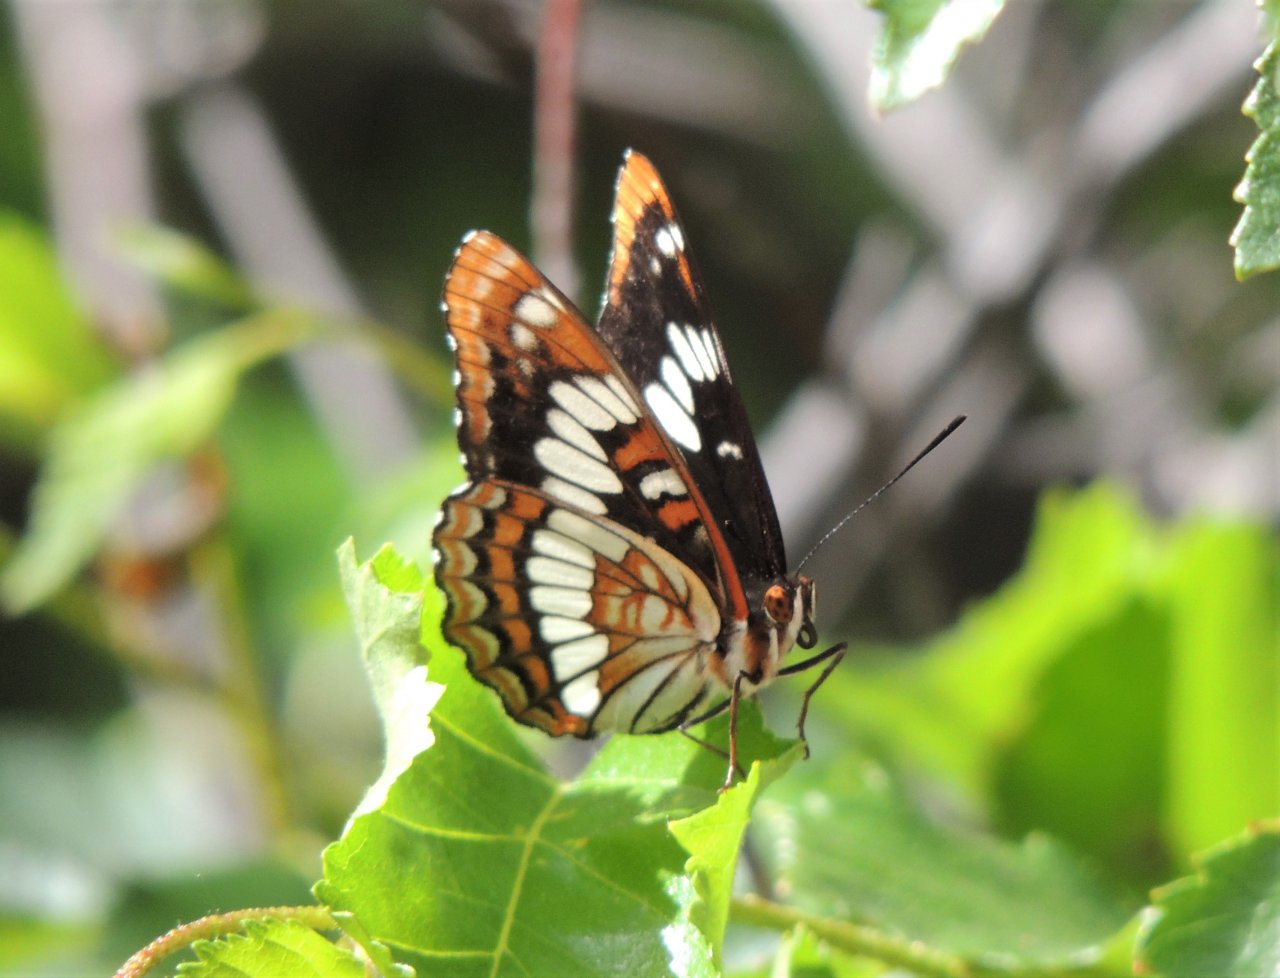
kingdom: Animalia
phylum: Arthropoda
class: Insecta
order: Lepidoptera
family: Nymphalidae
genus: Limenitis
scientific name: Limenitis lorquini
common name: Lorquin's Admiral
